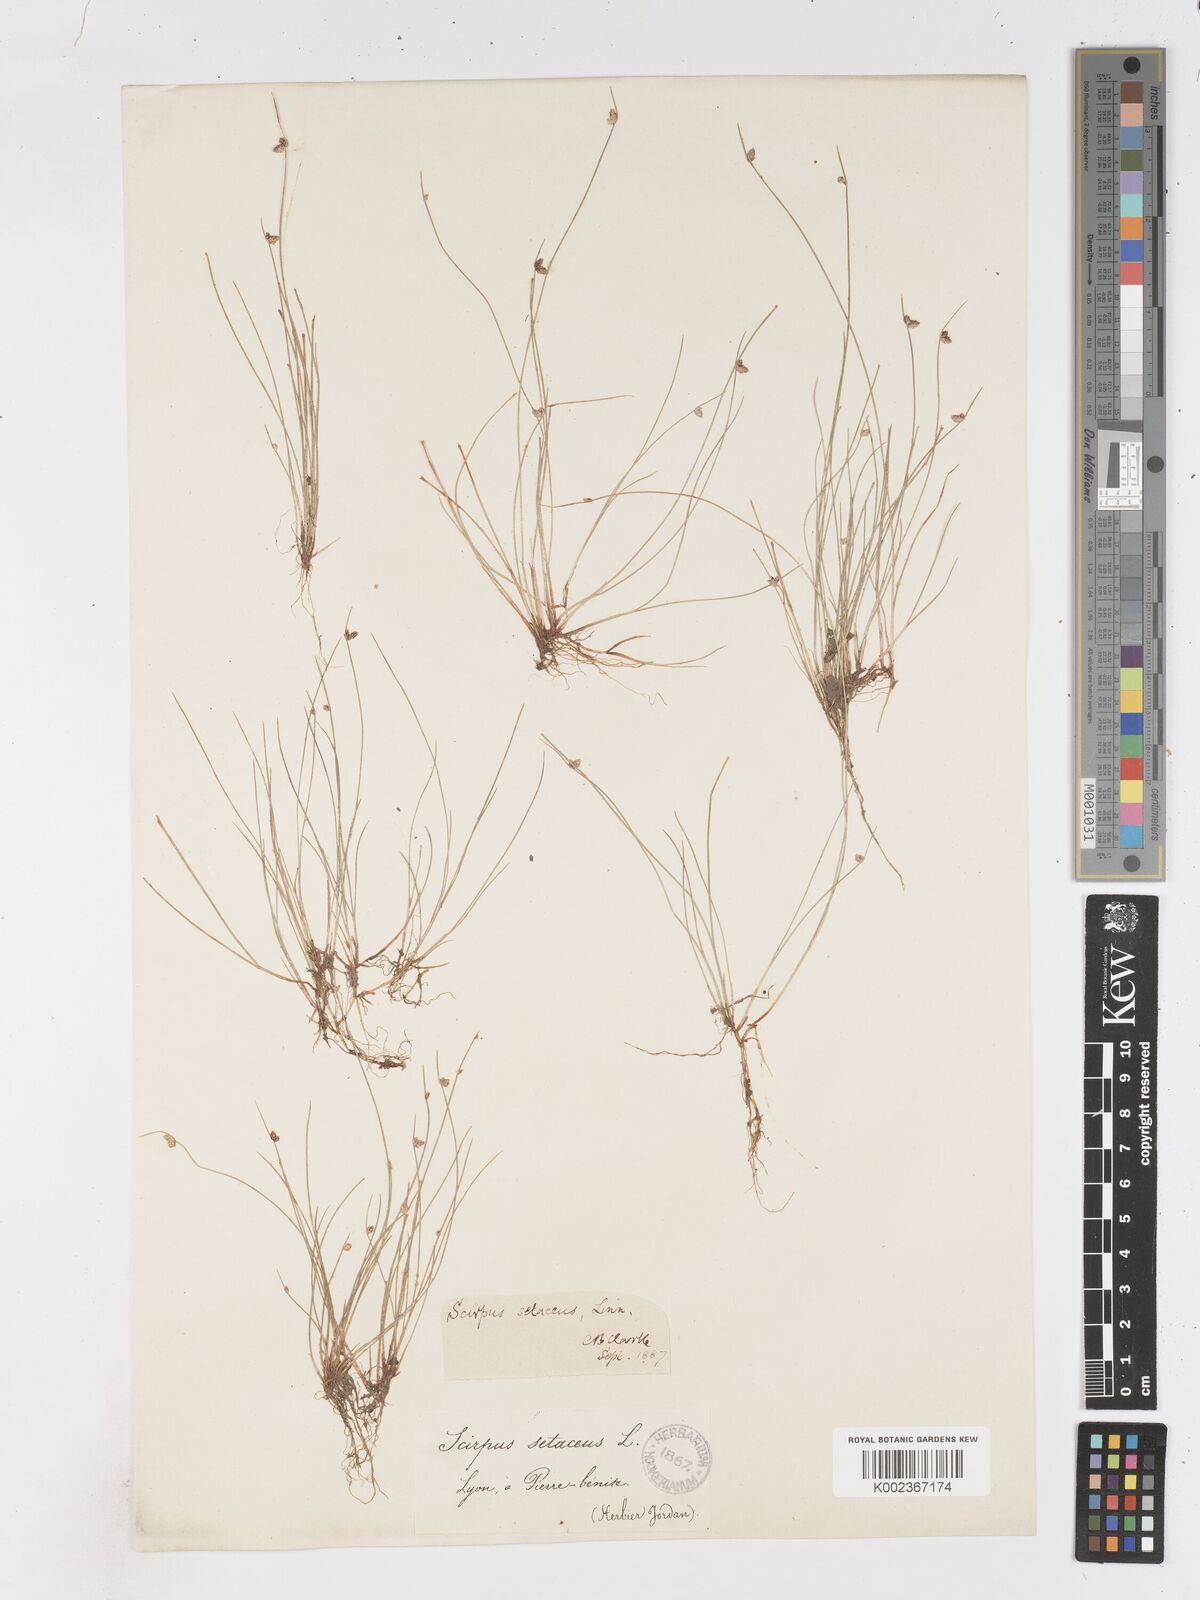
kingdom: Plantae
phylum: Tracheophyta
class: Liliopsida
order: Poales
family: Cyperaceae
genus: Isolepis
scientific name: Isolepis setacea
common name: Bristle club-rush
